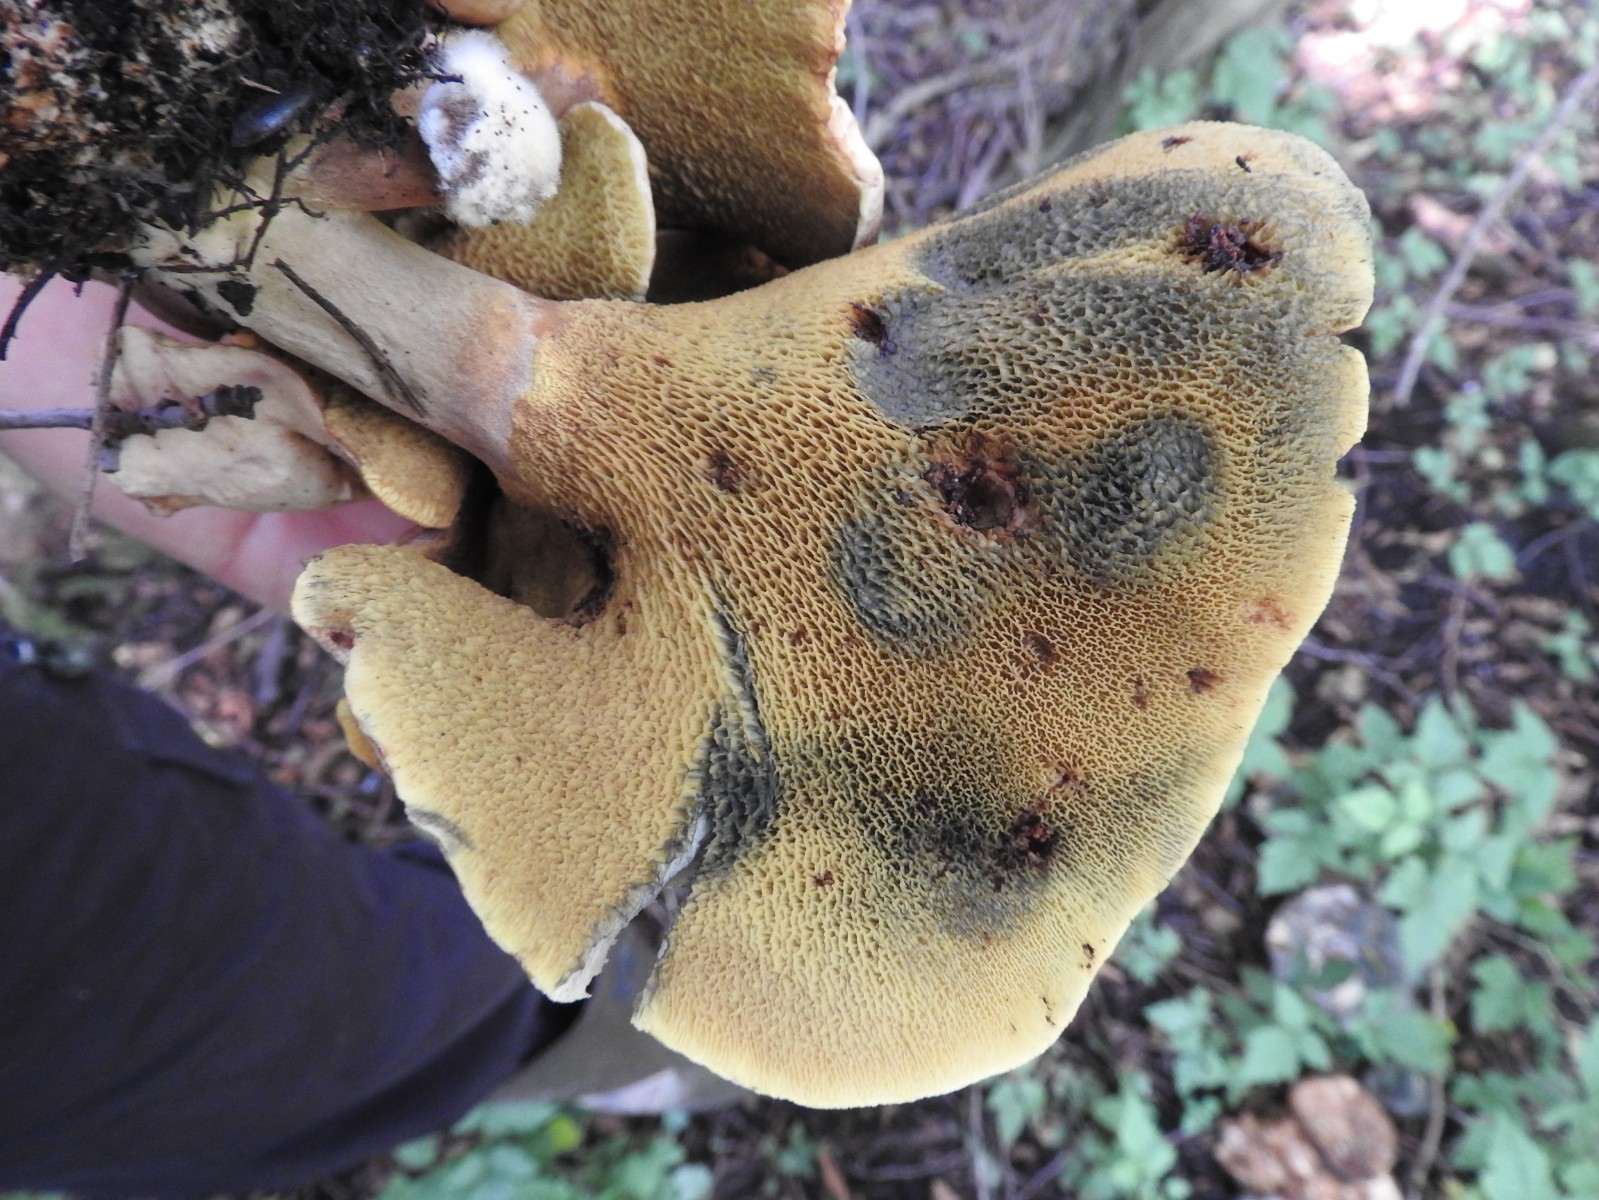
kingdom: Fungi
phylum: Basidiomycota
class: Agaricomycetes
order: Boletales
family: Paxillaceae
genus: Gyrodon
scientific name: Gyrodon lividus
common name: ellerørhat
